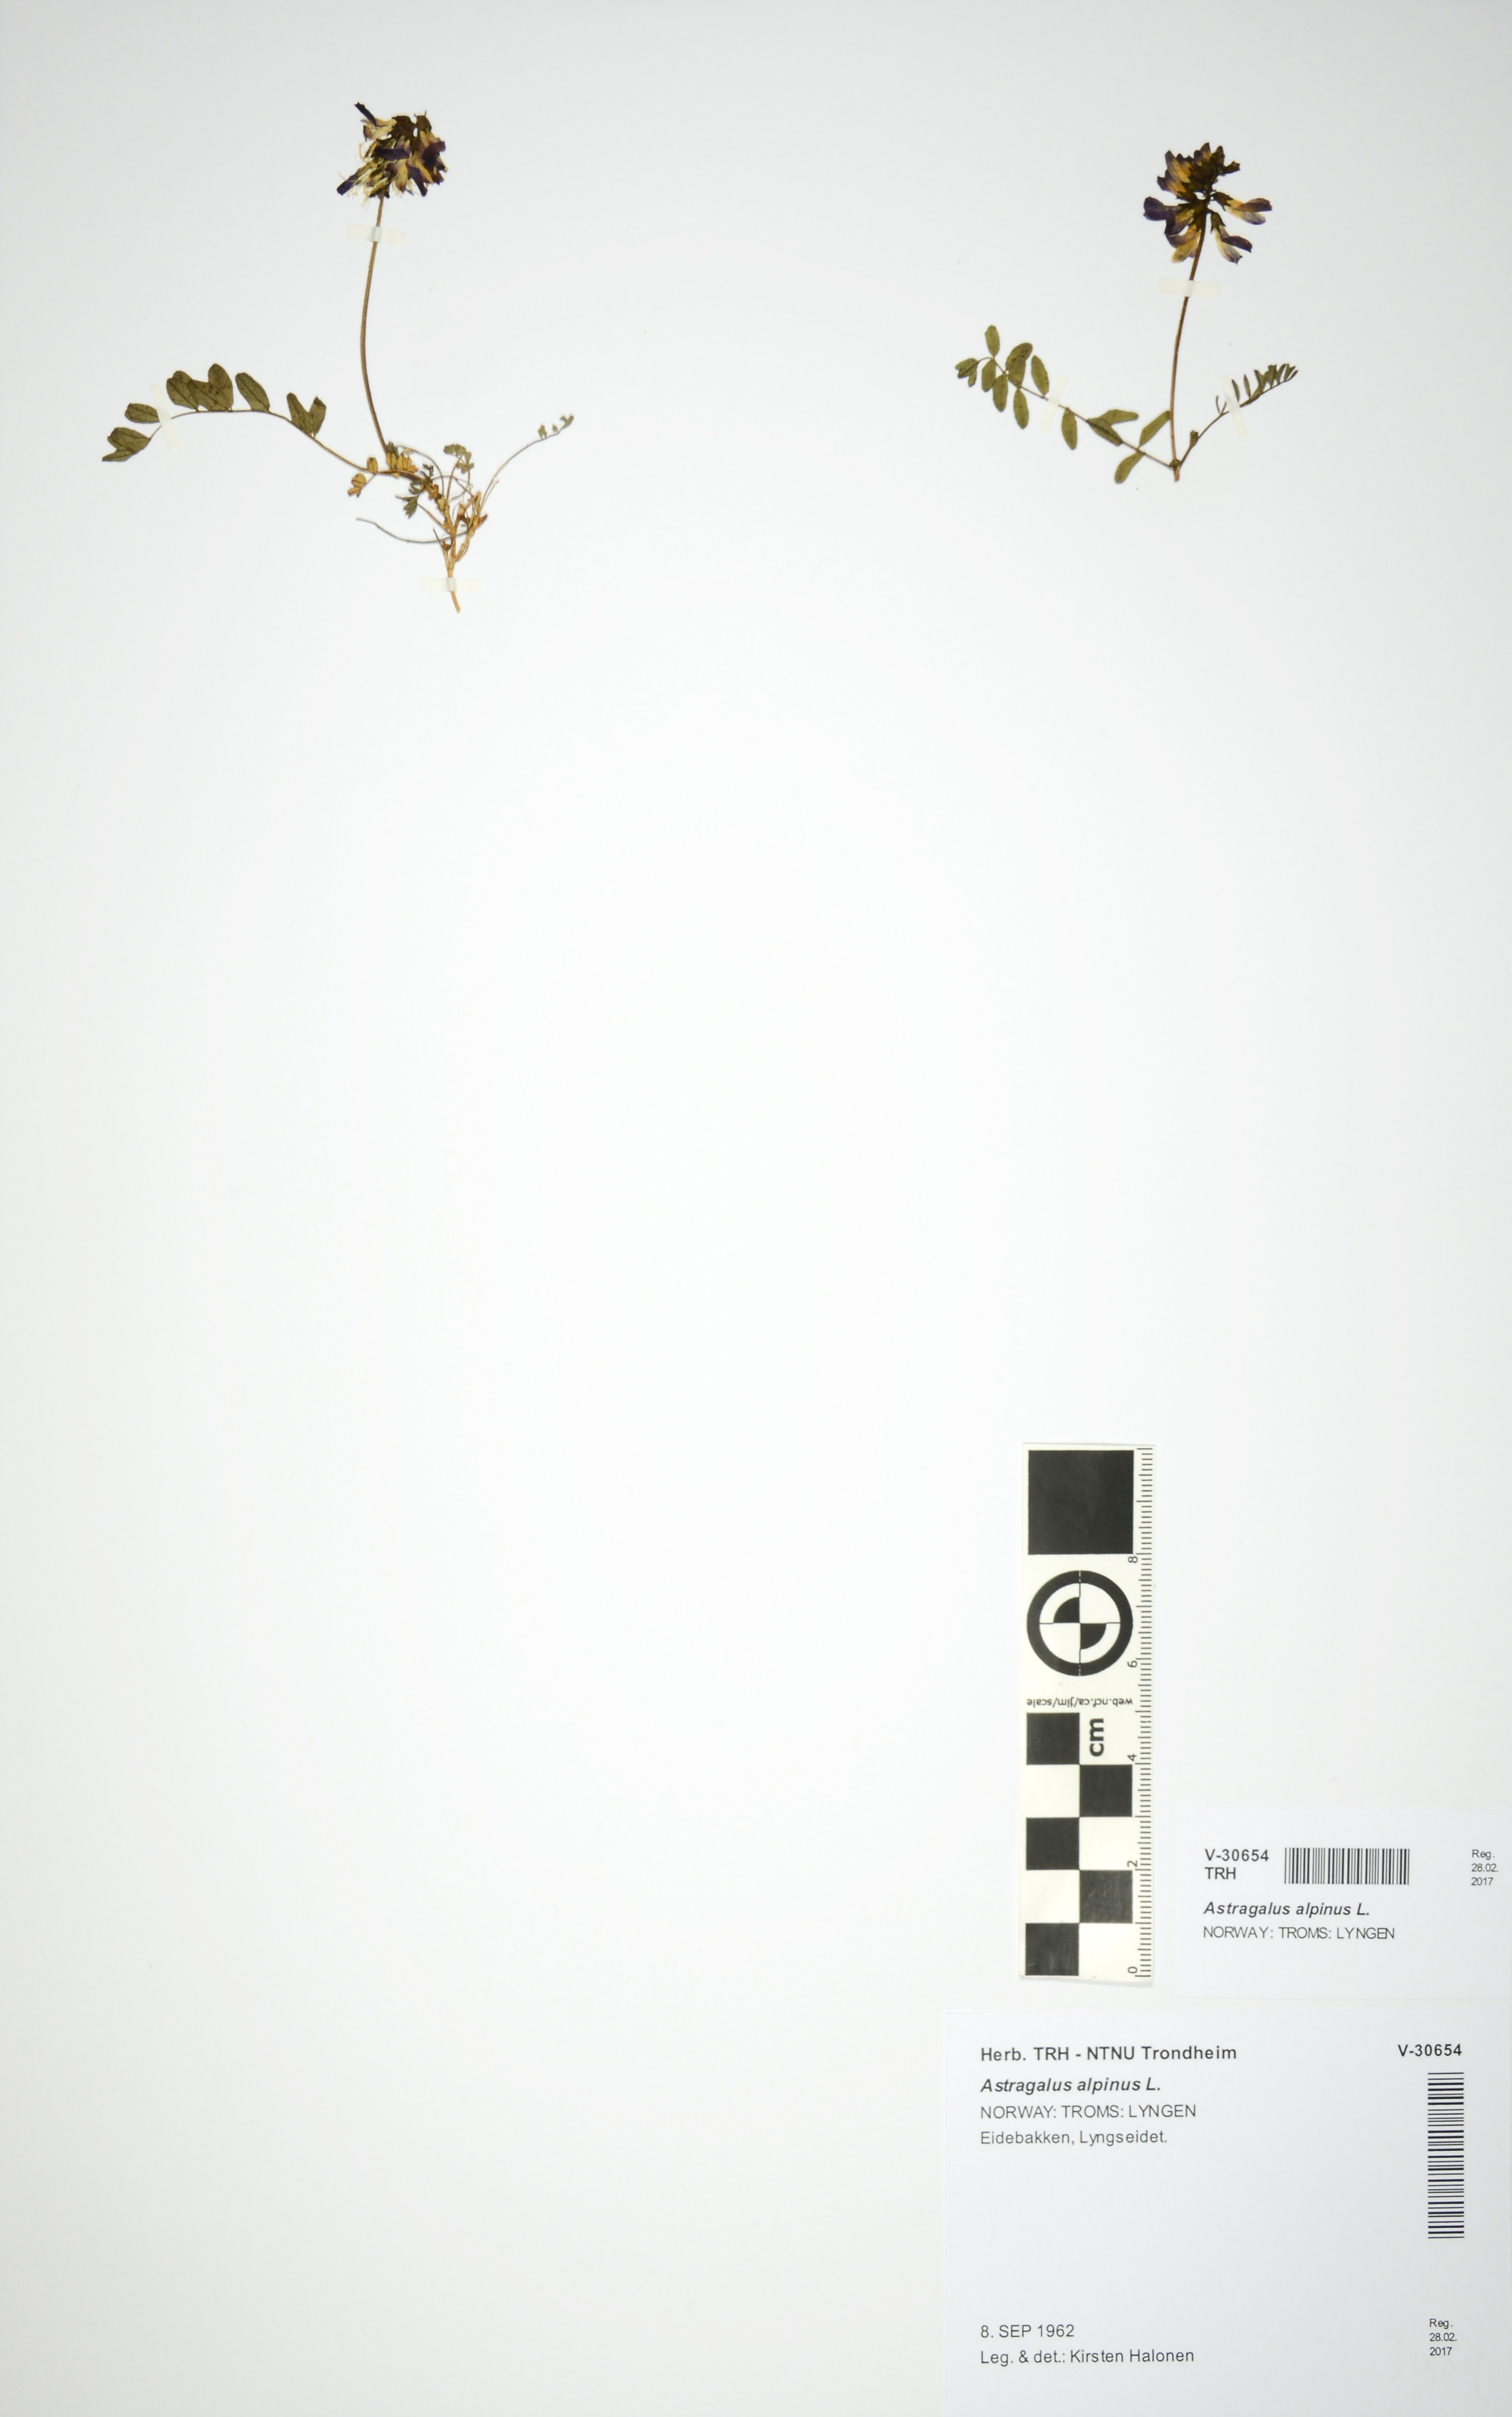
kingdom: Plantae
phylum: Tracheophyta
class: Magnoliopsida
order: Fabales
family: Fabaceae
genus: Astragalus
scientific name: Astragalus alpinus
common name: Alpine milk-vetch
